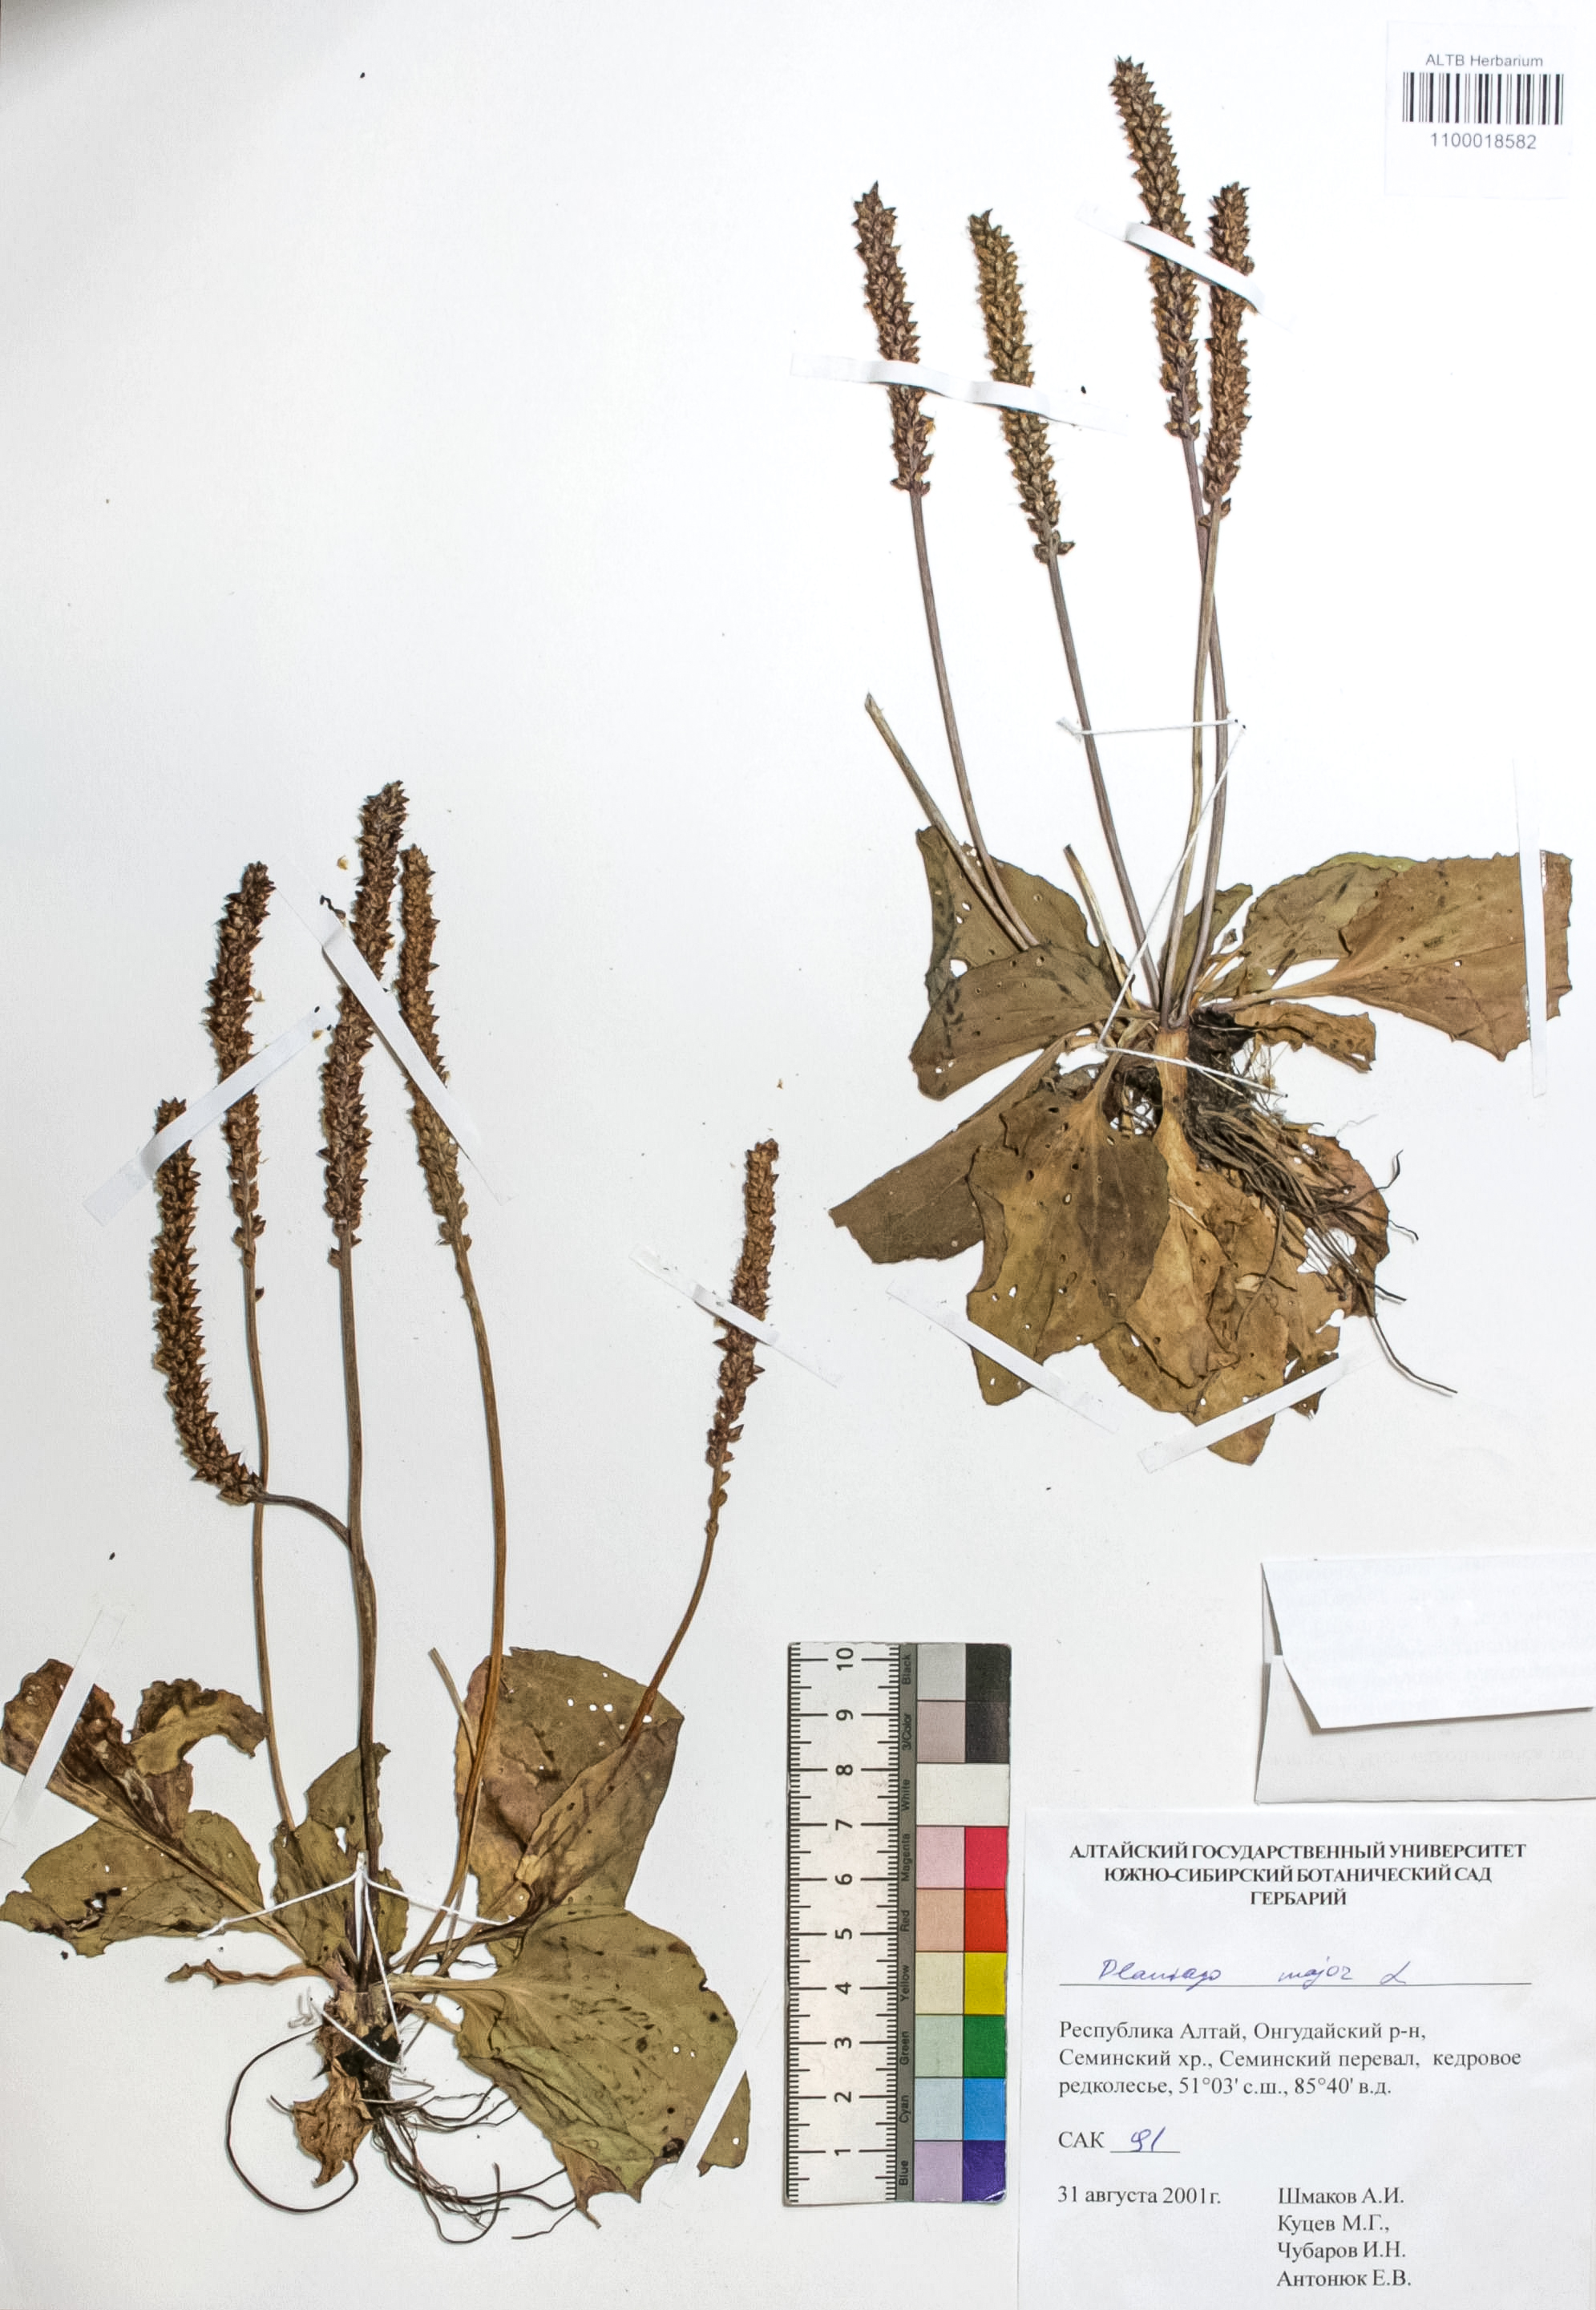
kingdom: Plantae
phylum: Tracheophyta
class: Magnoliopsida
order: Lamiales
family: Plantaginaceae
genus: Plantago
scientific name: Plantago major
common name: Common plantain
